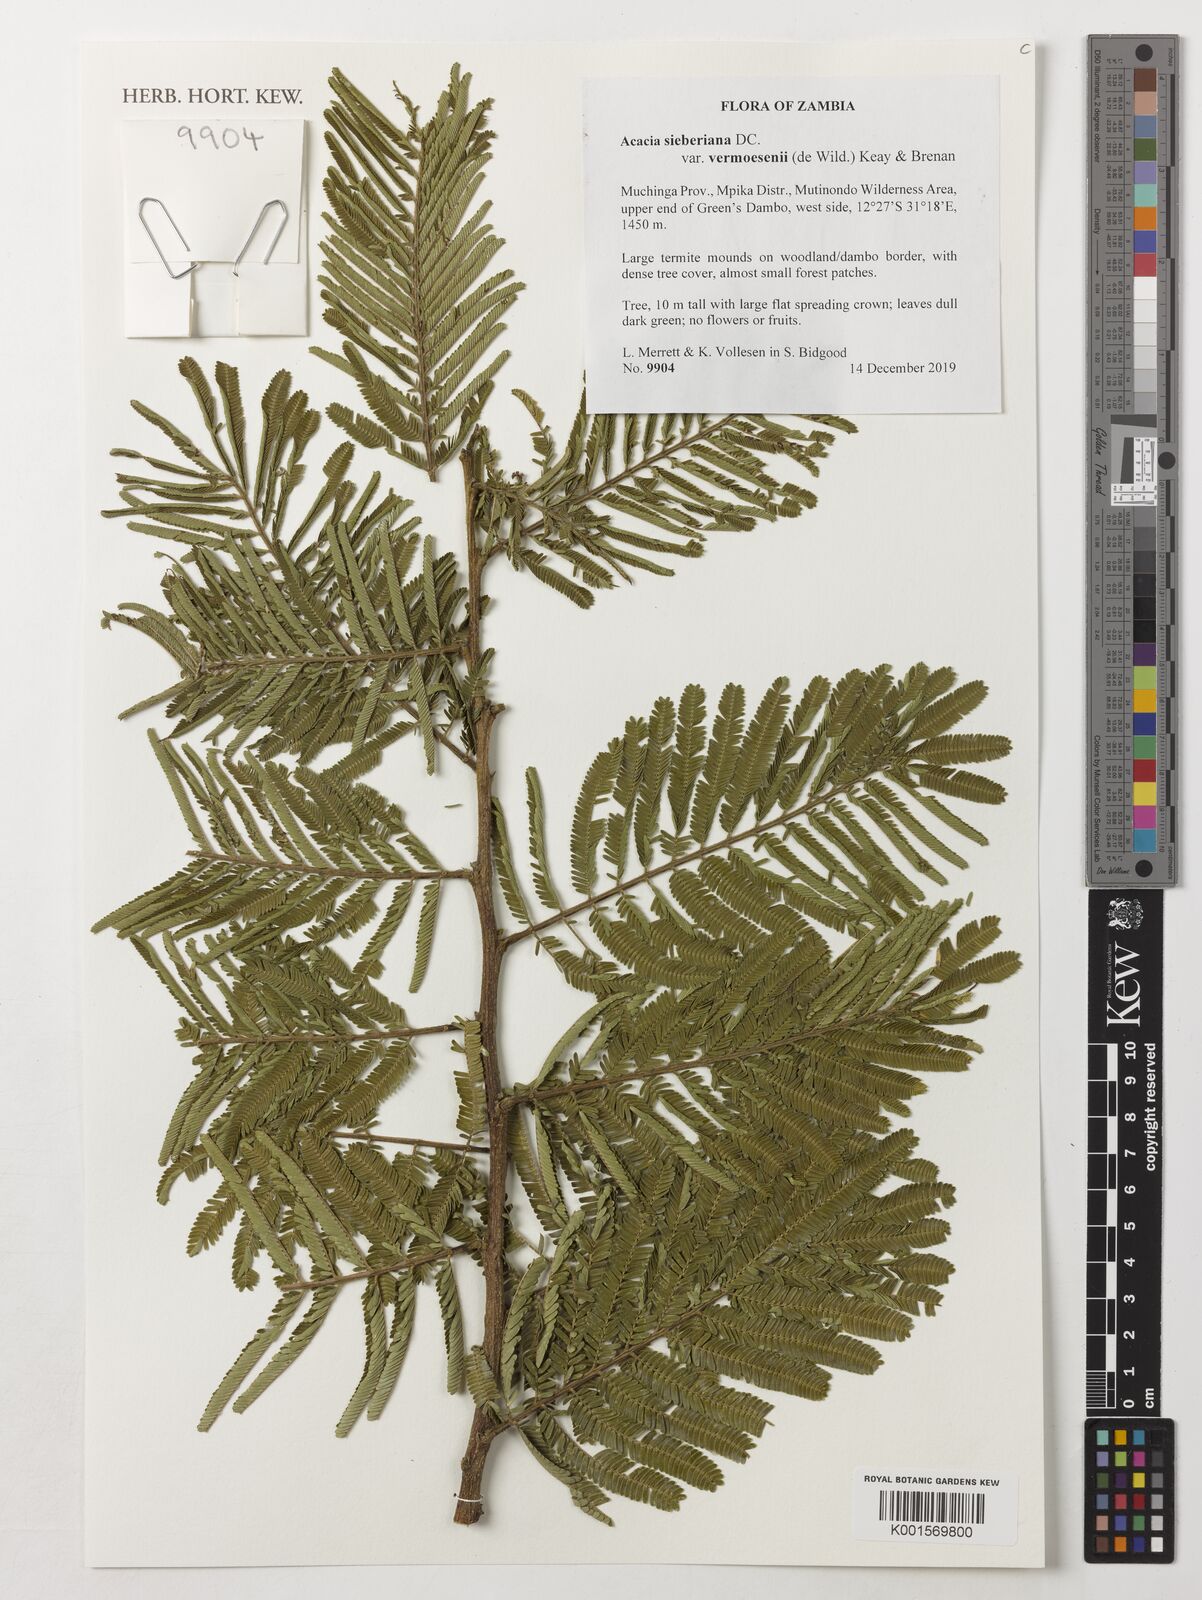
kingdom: Plantae
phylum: Tracheophyta
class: Magnoliopsida
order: Fabales
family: Fabaceae
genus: Vachellia
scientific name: Vachellia sieberiana
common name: Flat-topped thorn
